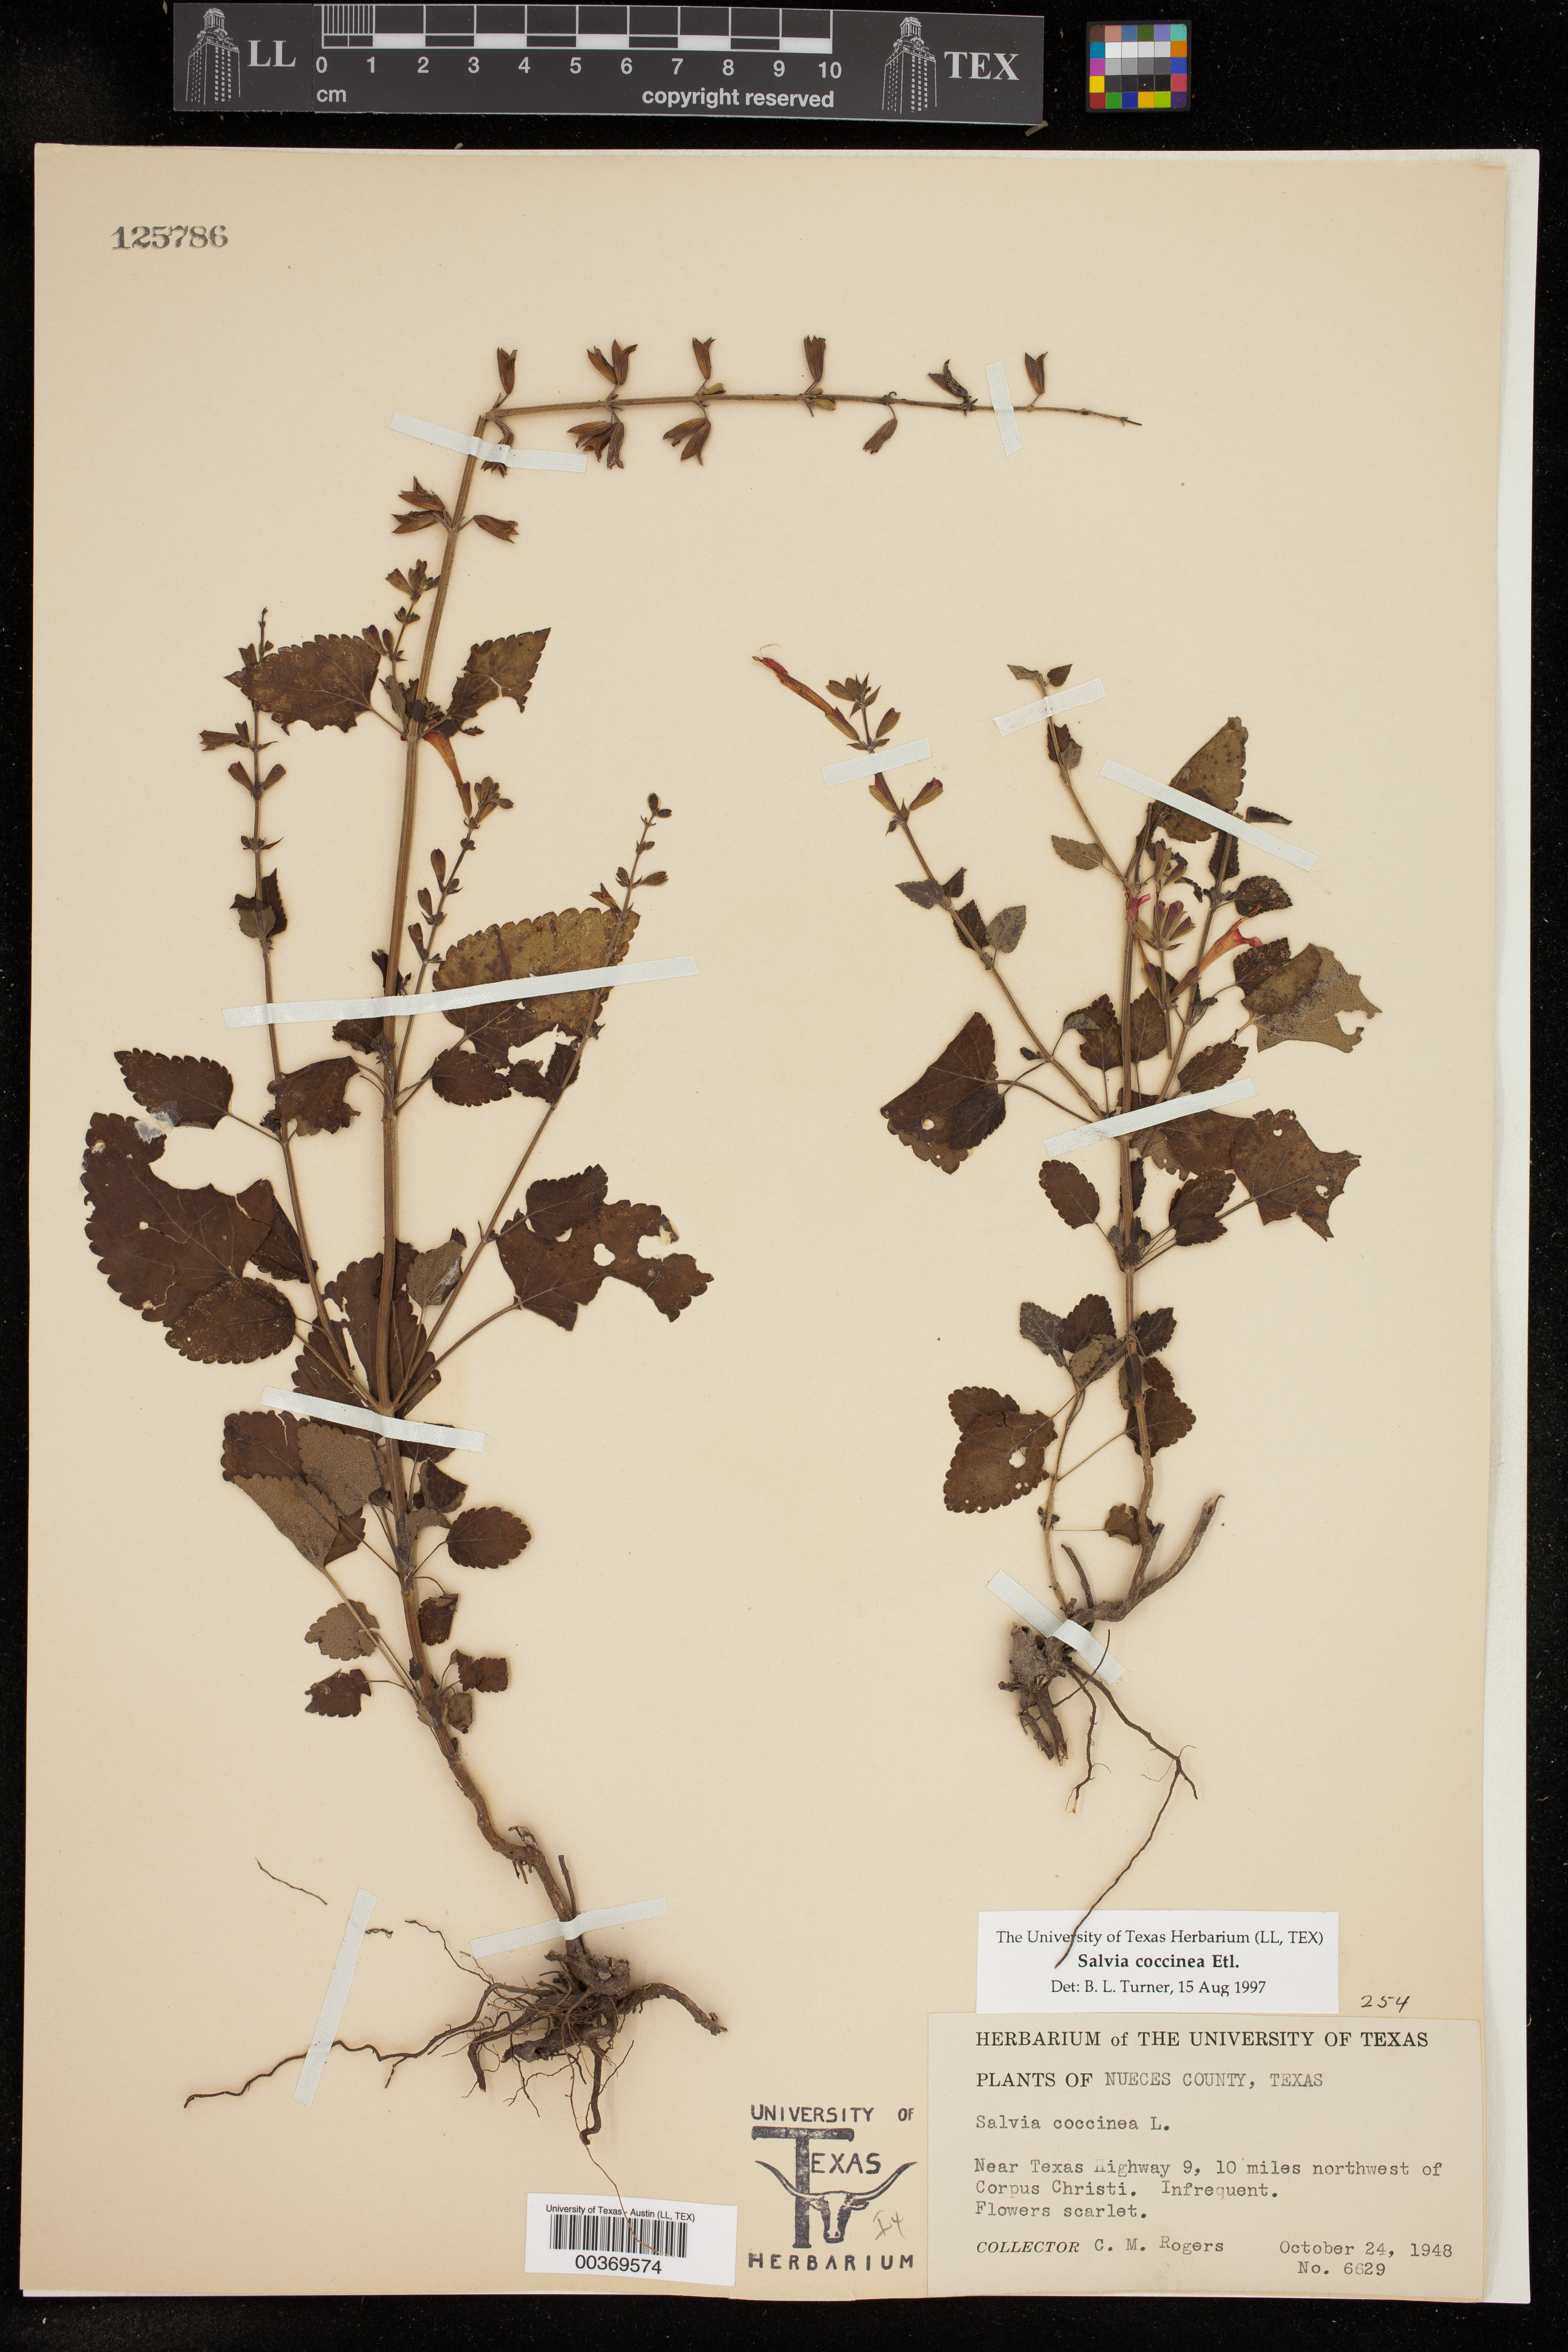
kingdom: Plantae
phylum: Tracheophyta
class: Magnoliopsida
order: Lamiales
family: Lamiaceae
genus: Salvia
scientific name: Salvia coccinea
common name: Blood sage
